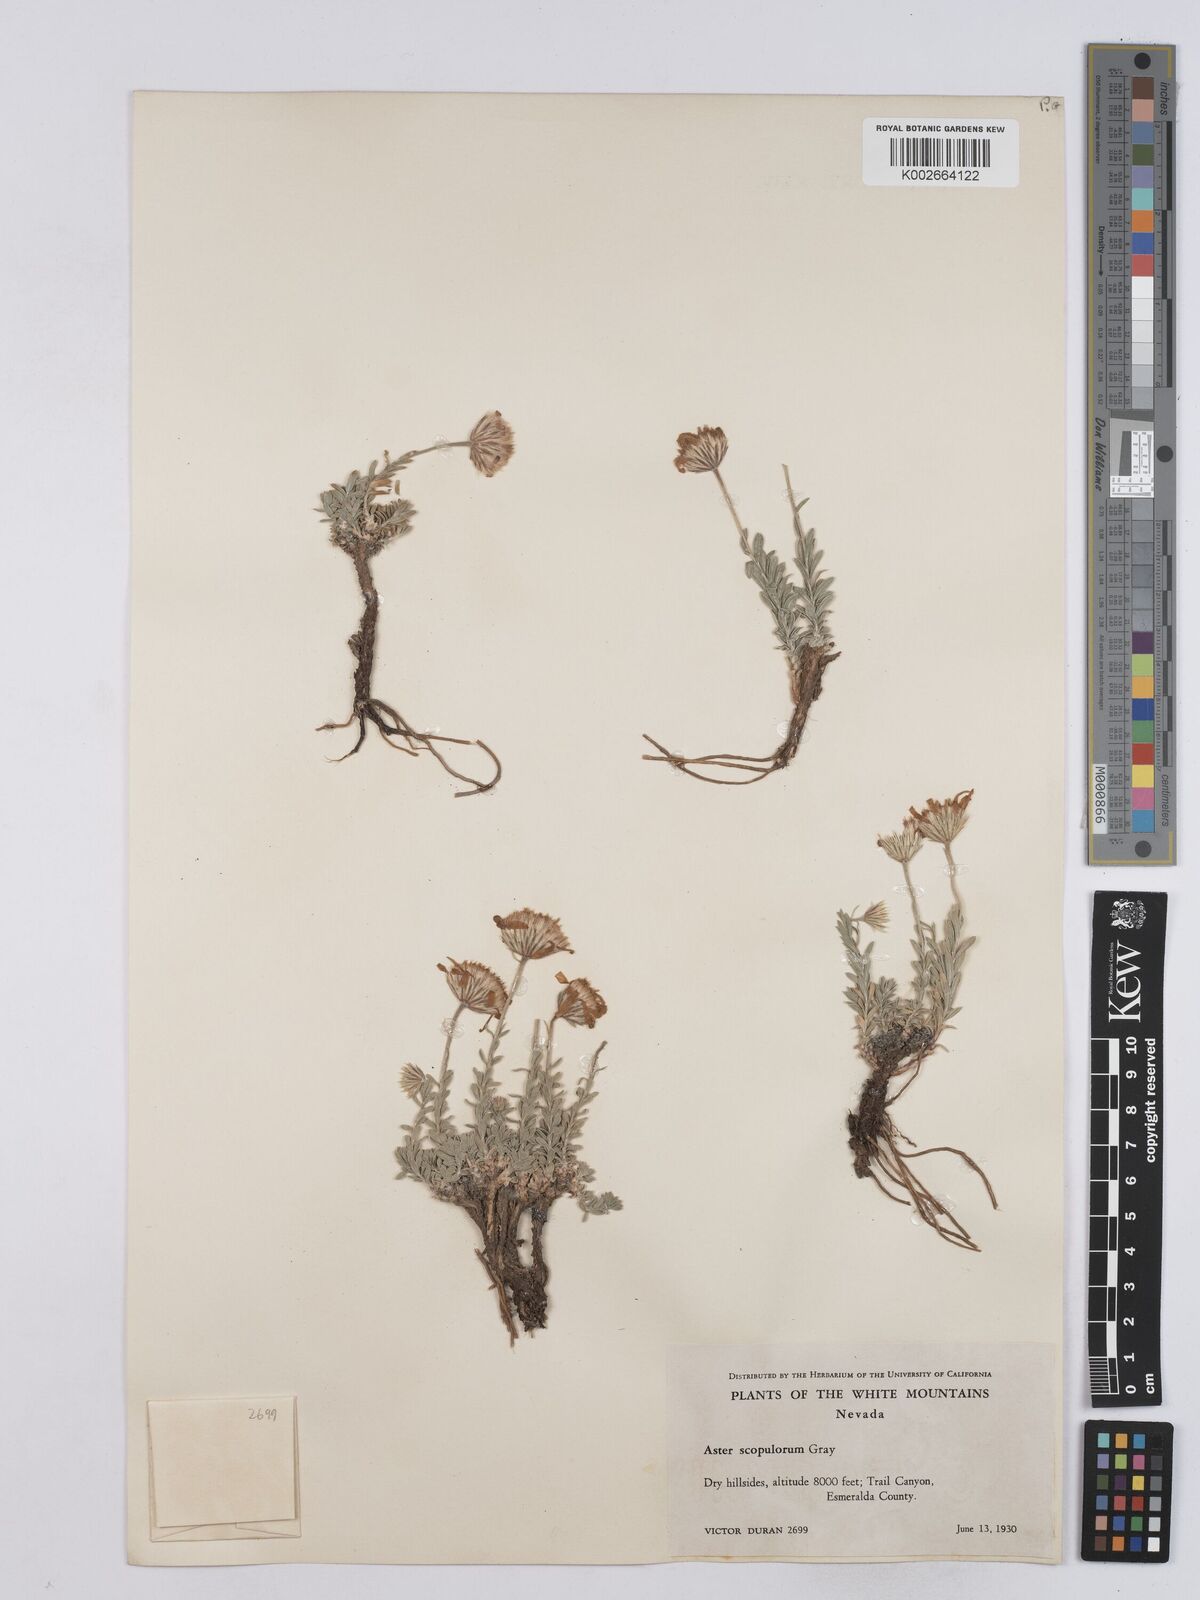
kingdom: Plantae
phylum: Tracheophyta
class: Magnoliopsida
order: Asterales
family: Asteraceae
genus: Ionactis
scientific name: Ionactis alpina
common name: Crag aster
